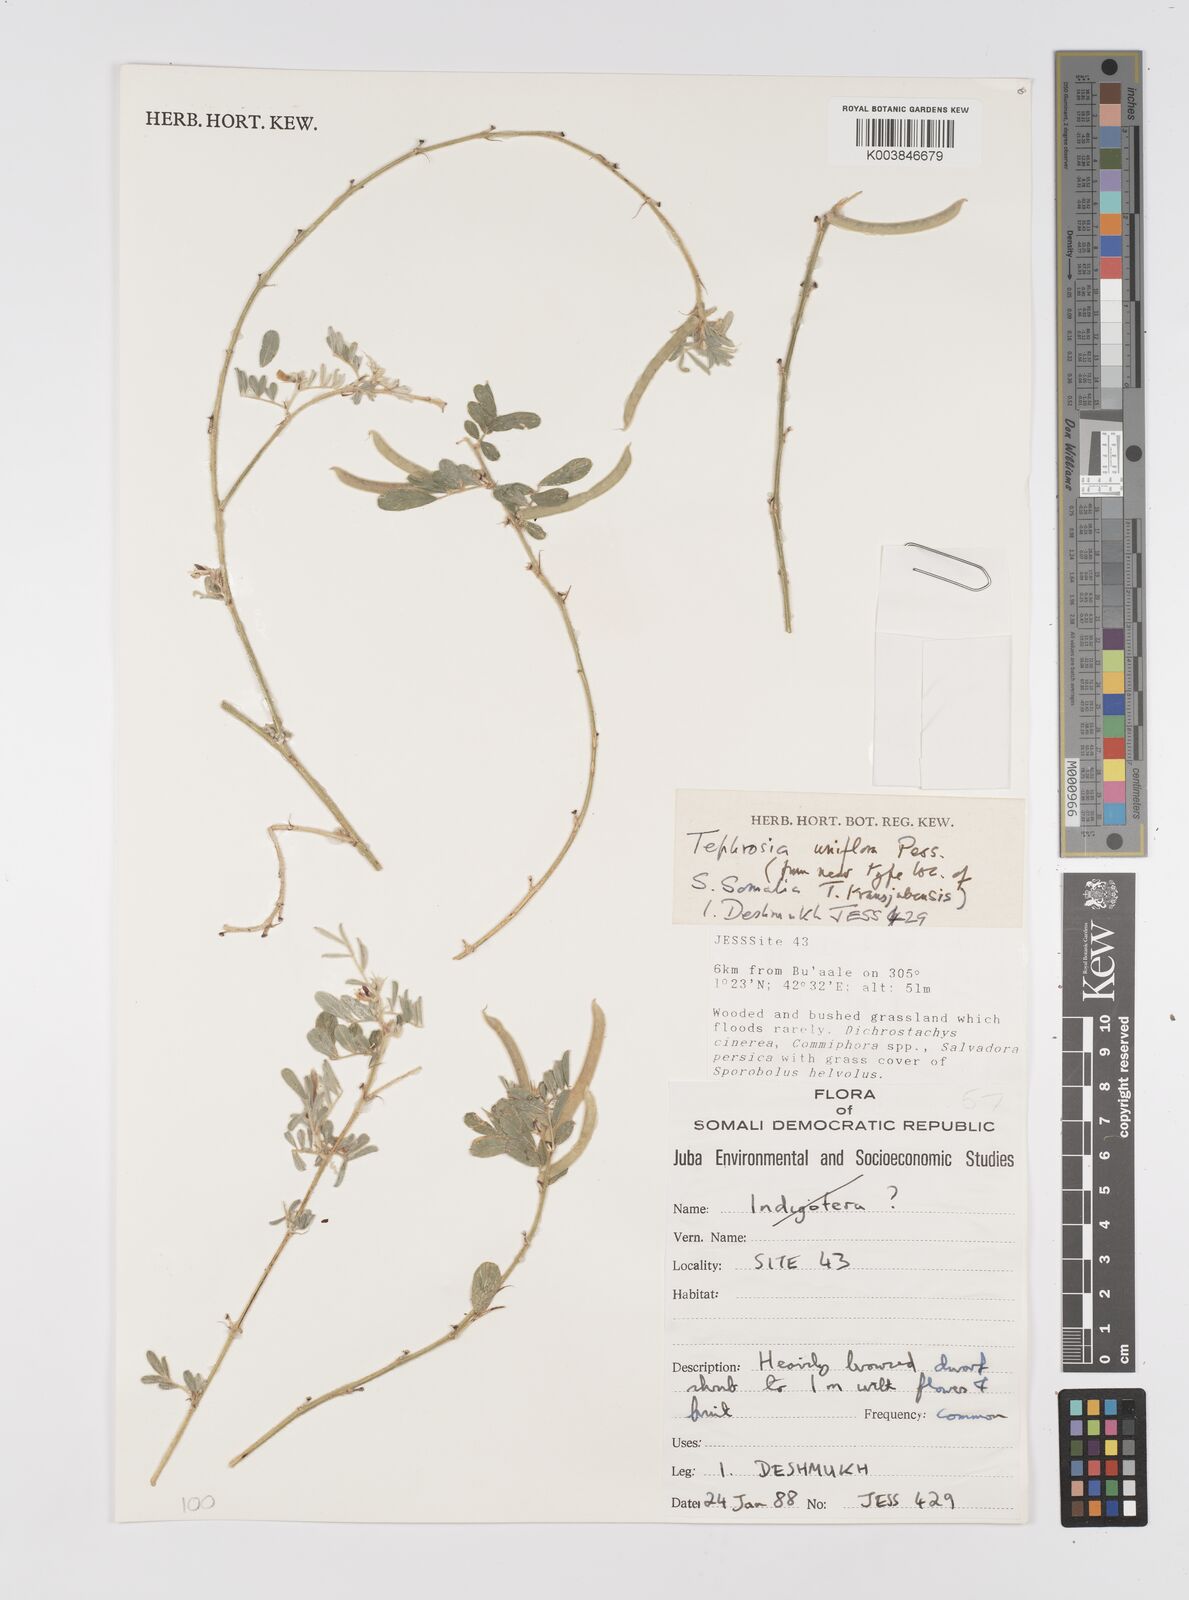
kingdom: Plantae
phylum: Tracheophyta
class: Magnoliopsida
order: Fabales
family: Fabaceae
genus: Tephrosia
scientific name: Tephrosia uniflora
